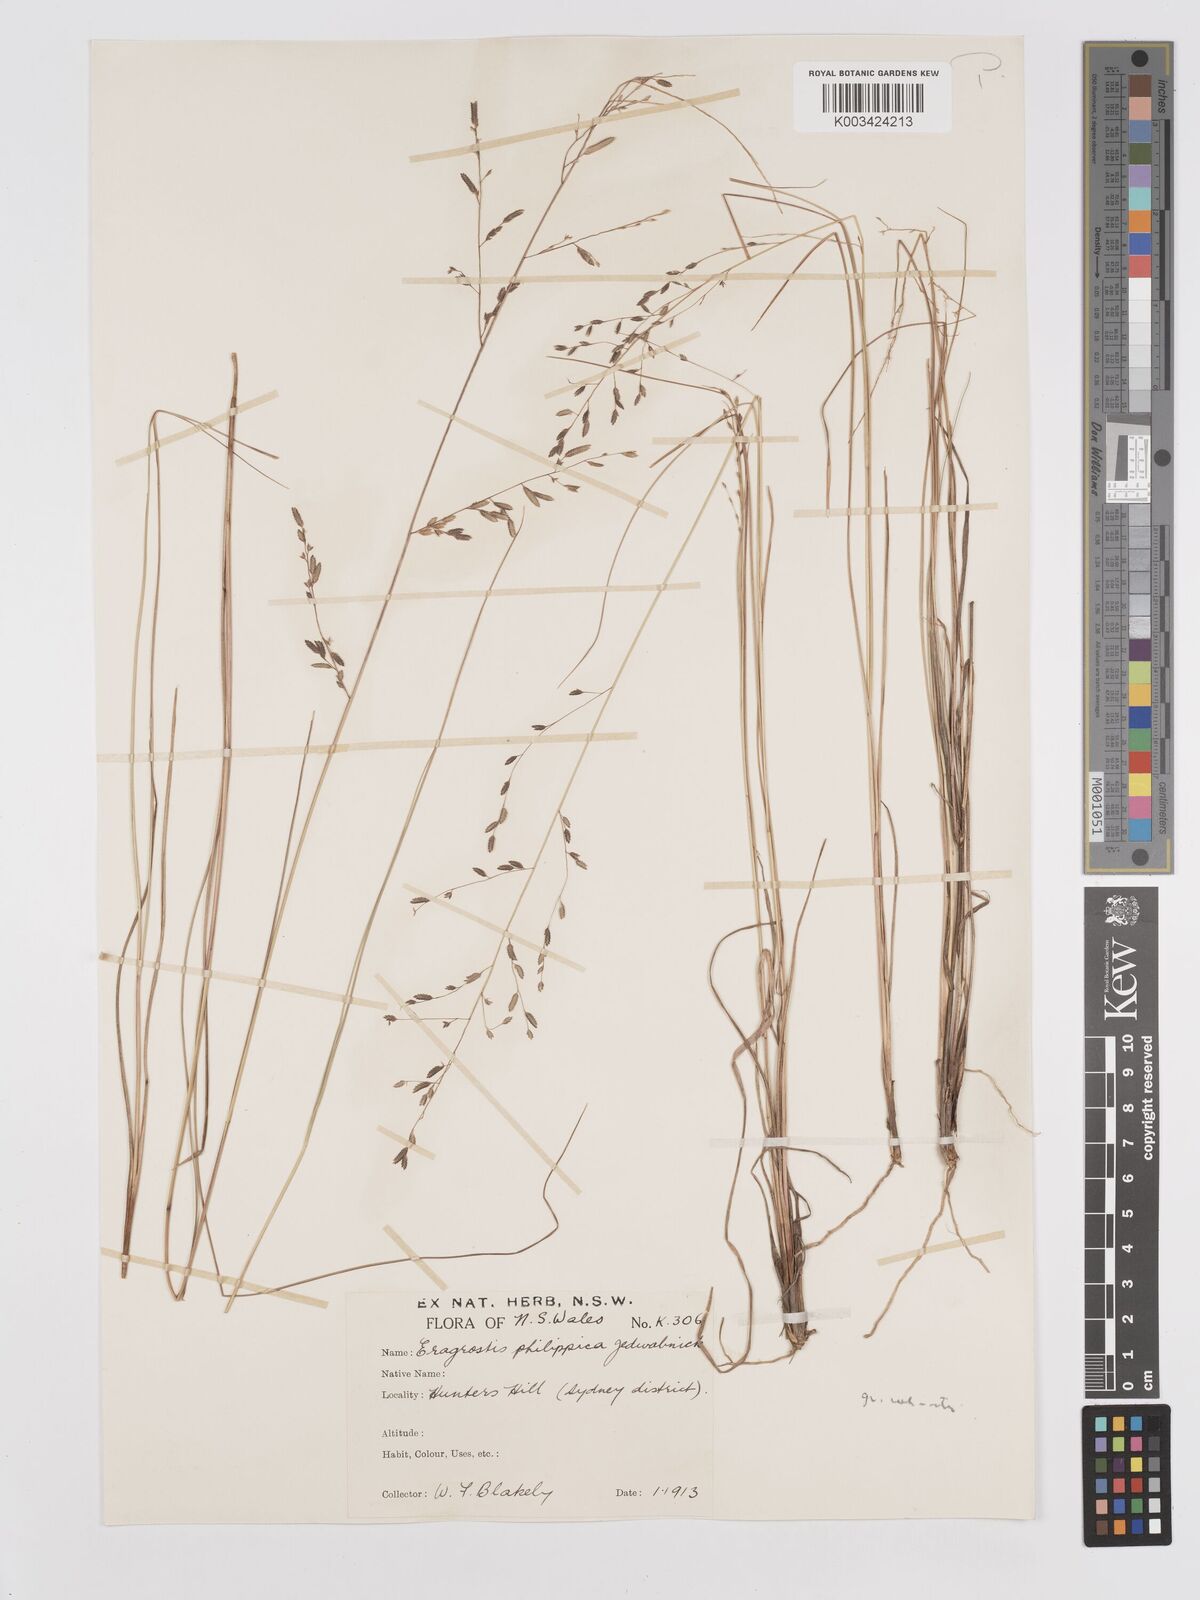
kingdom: Plantae
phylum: Tracheophyta
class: Liliopsida
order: Poales
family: Poaceae
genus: Eragrostis
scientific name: Eragrostis brownii
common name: Lovegrass
